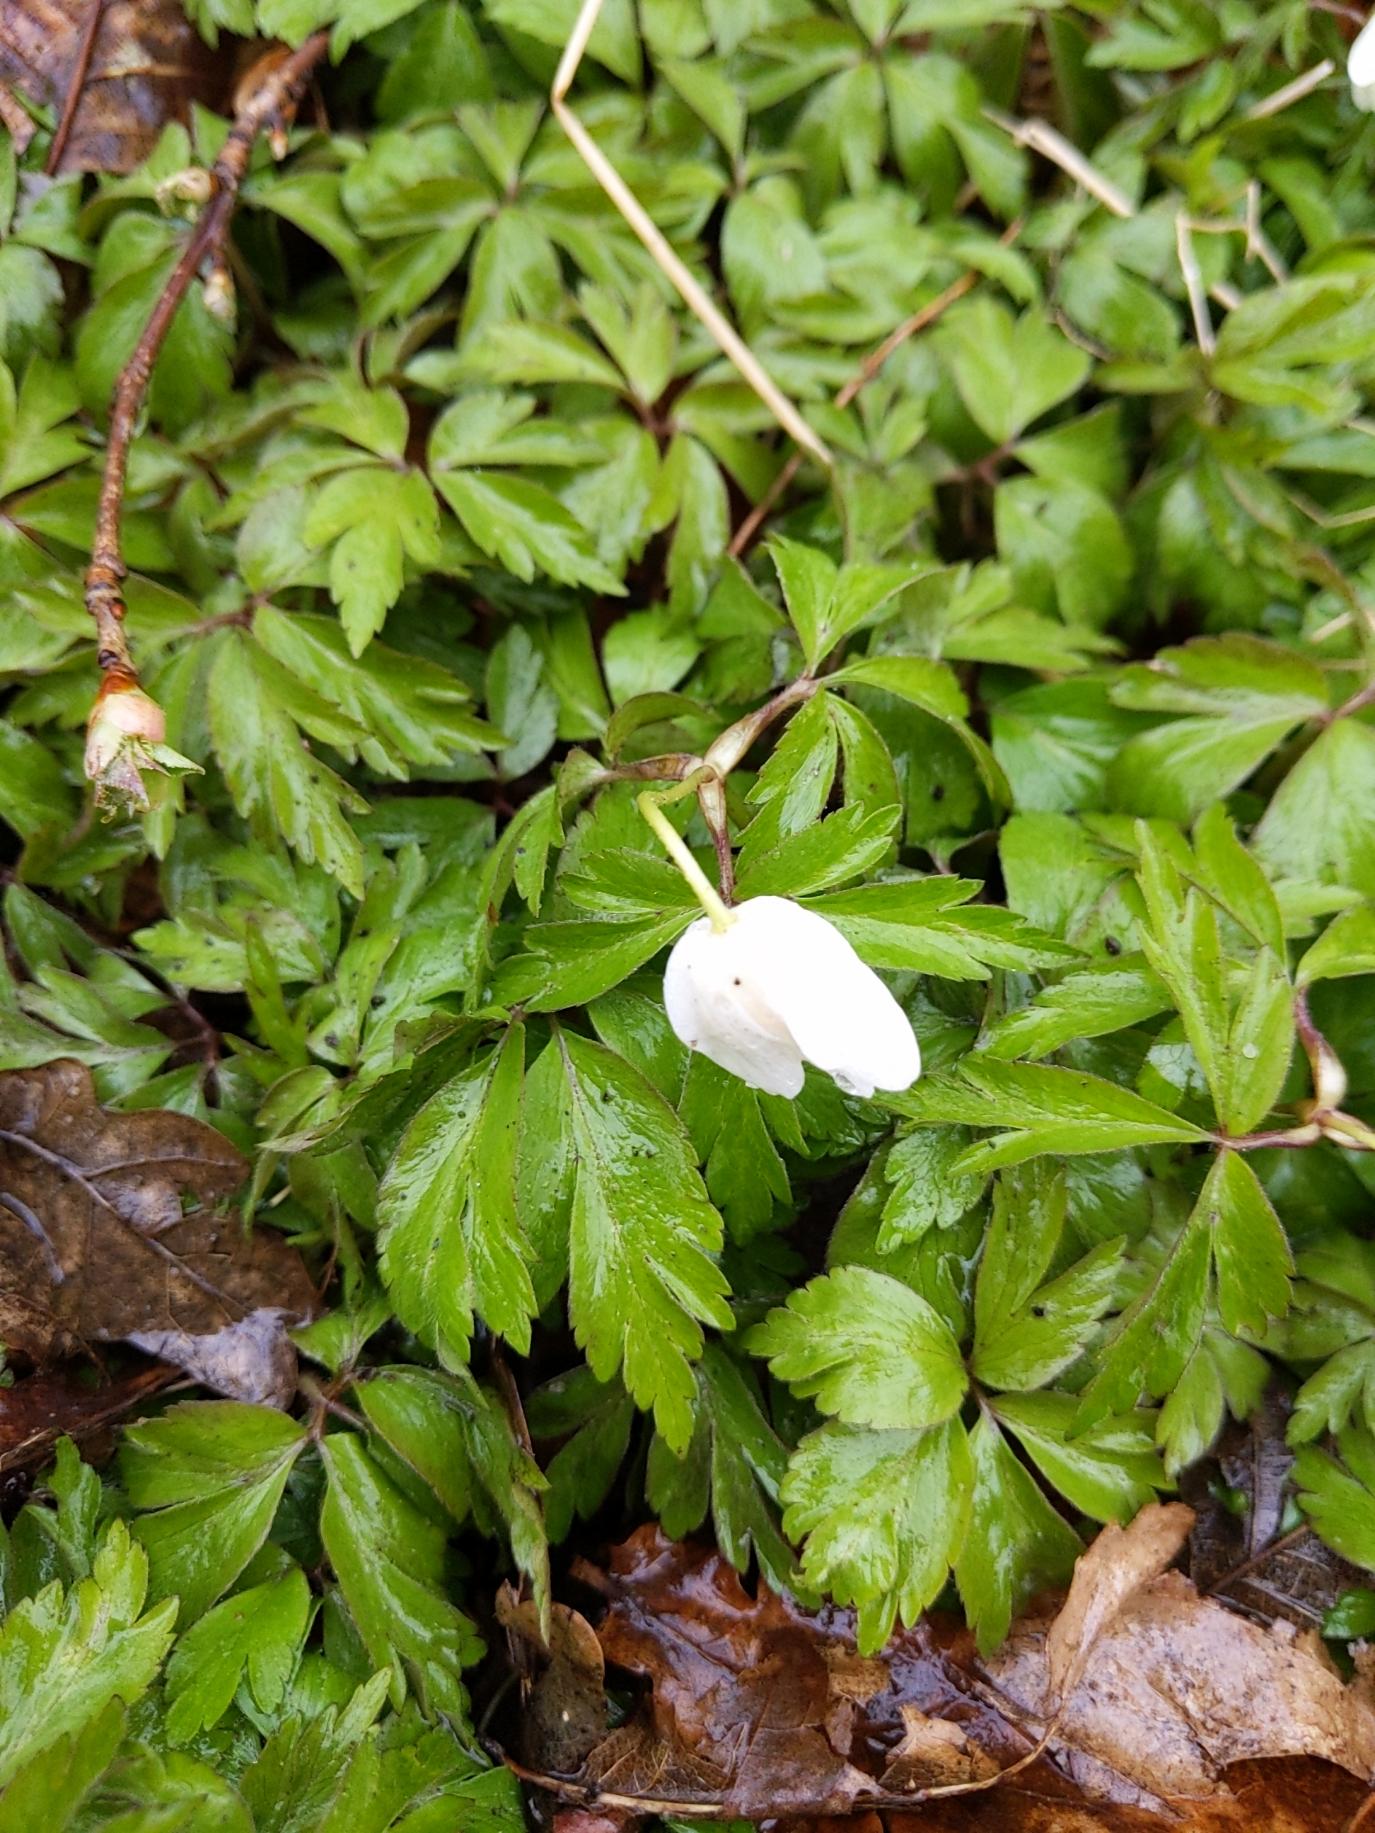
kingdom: Plantae
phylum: Tracheophyta
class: Magnoliopsida
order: Ranunculales
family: Ranunculaceae
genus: Anemone
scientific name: Anemone nemorosa
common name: Hvid anemone
